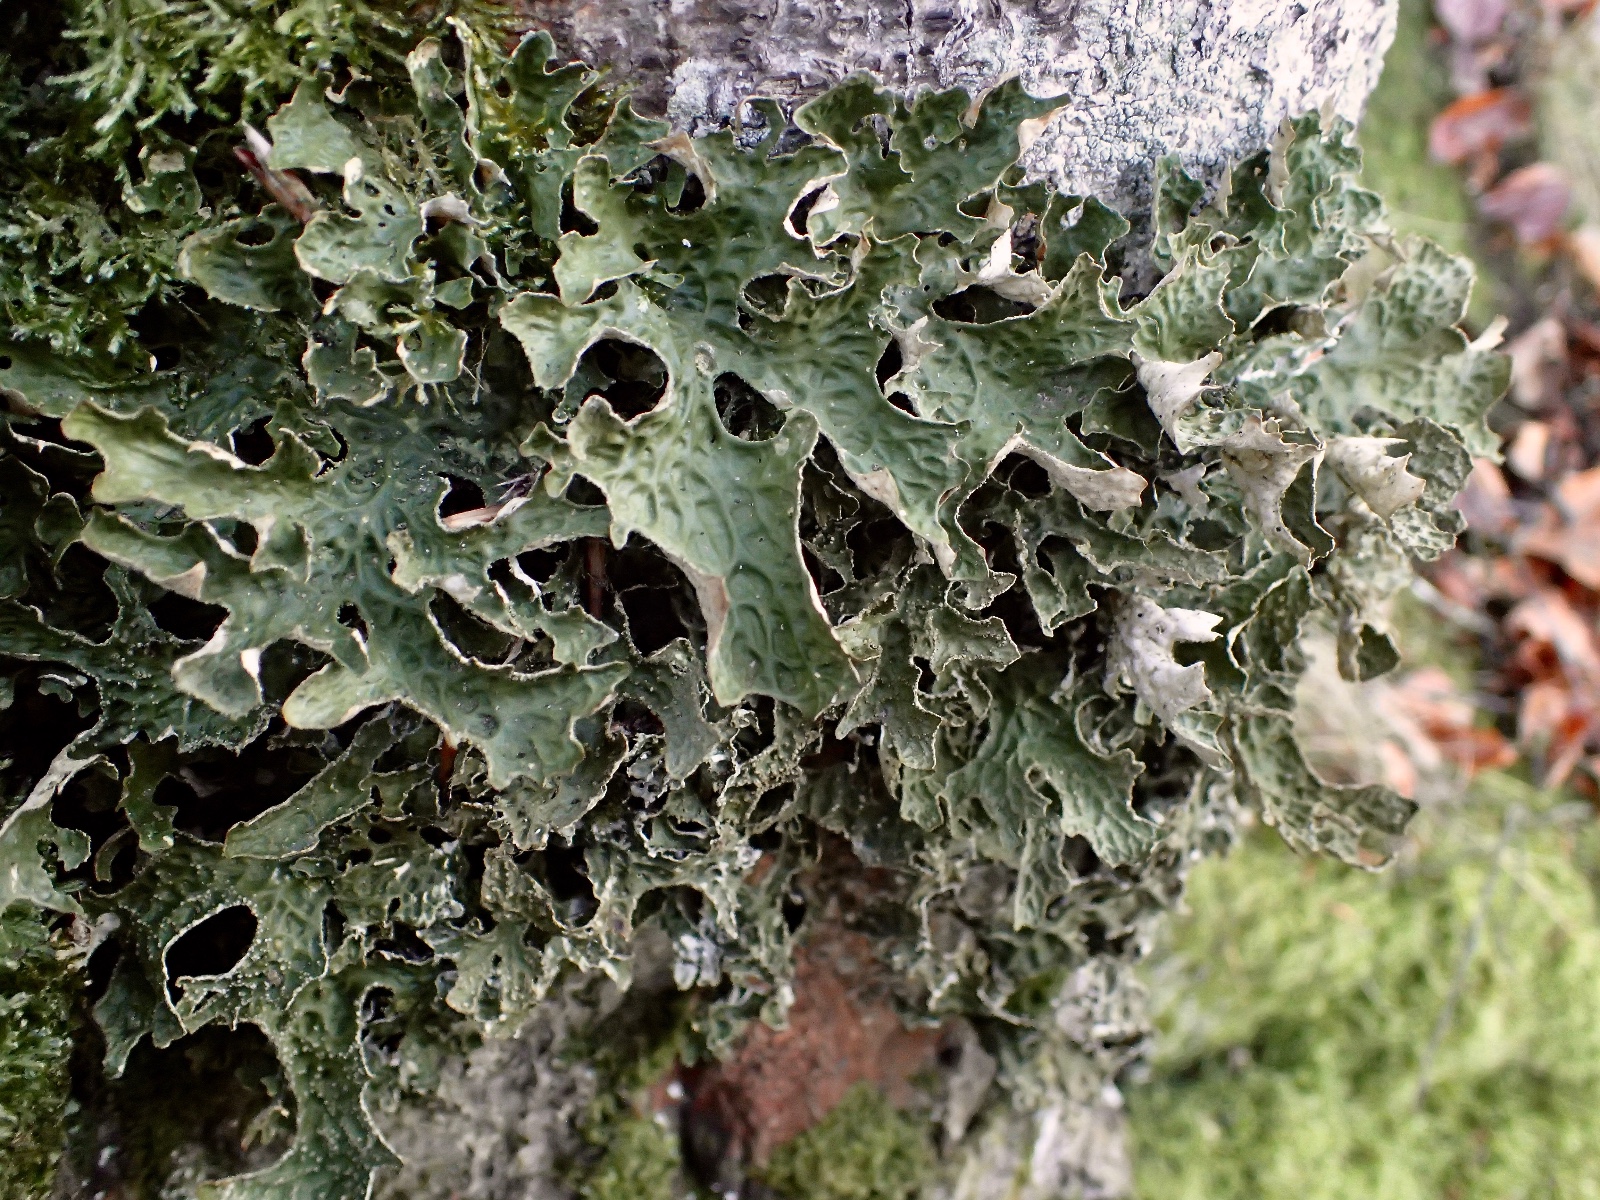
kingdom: Fungi
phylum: Ascomycota
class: Lecanoromycetes
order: Peltigerales
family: Lobariaceae
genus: Lobaria
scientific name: Lobaria pulmonaria
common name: almindelig lungelav
